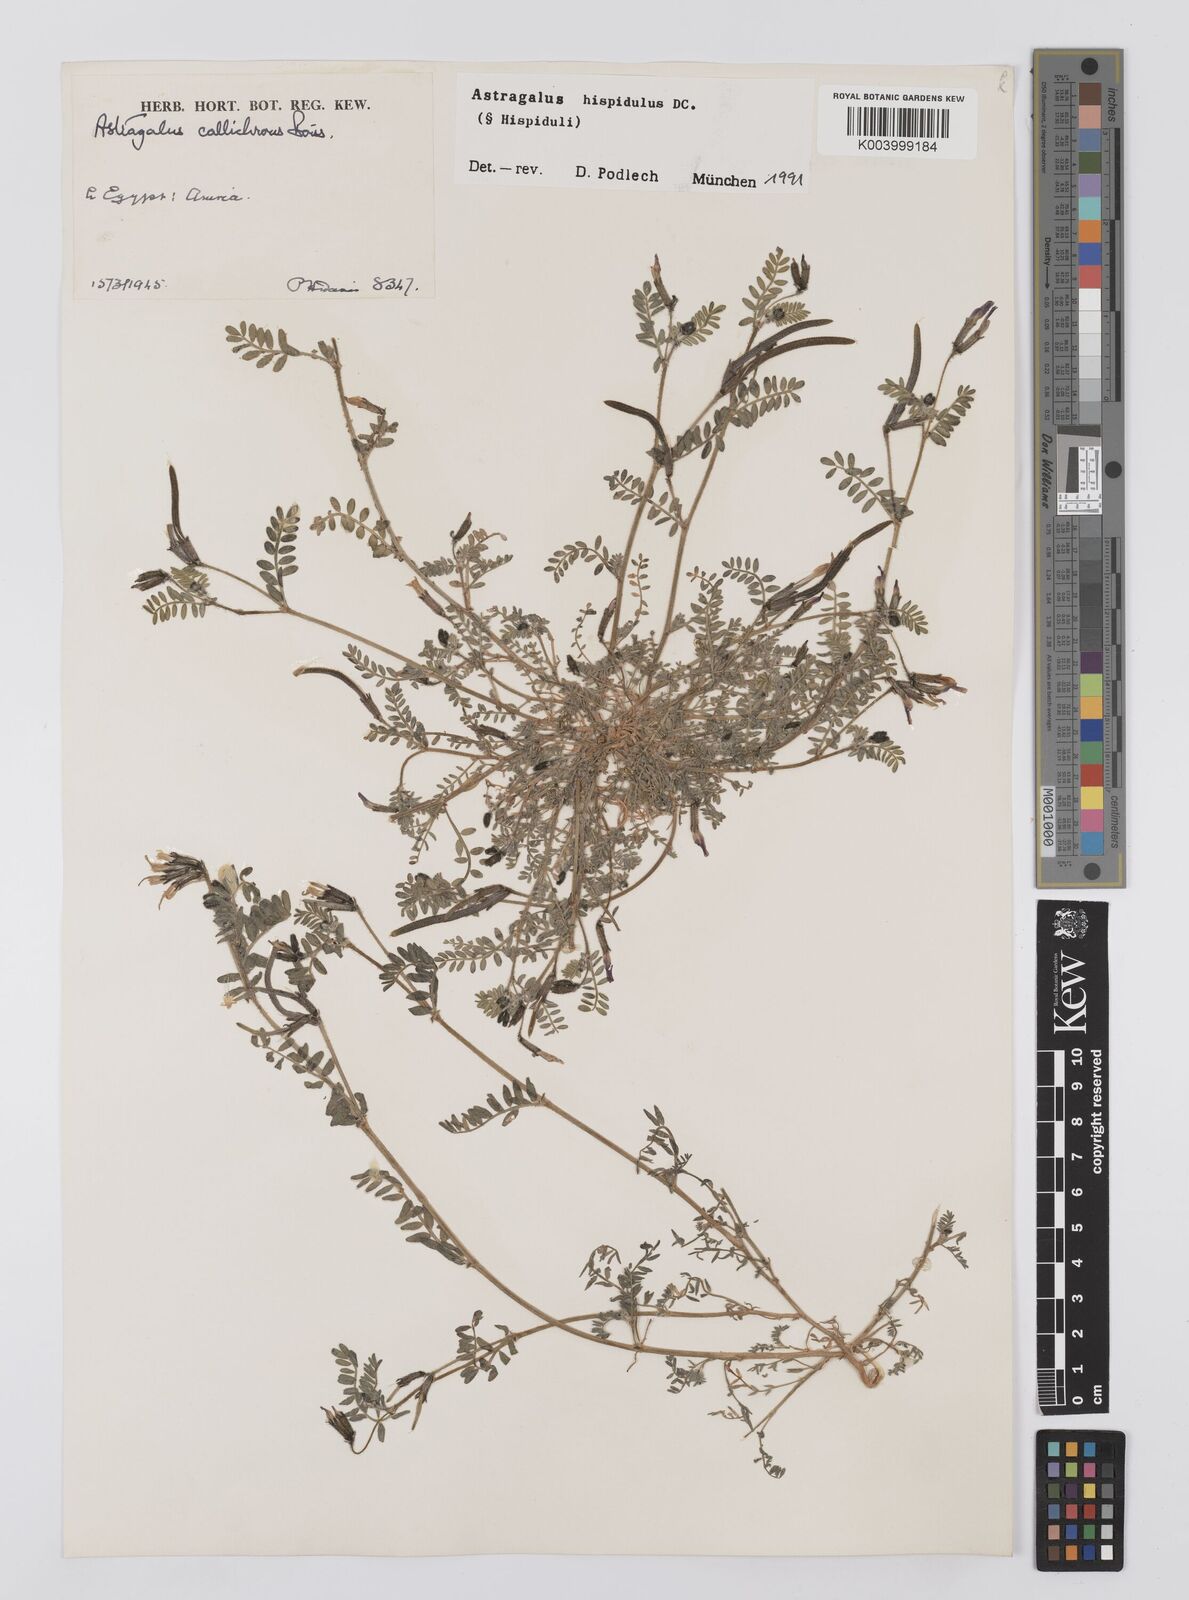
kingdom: Plantae
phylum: Tracheophyta
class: Magnoliopsida
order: Fabales
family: Fabaceae
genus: Astragalus
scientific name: Astragalus hispidulus
